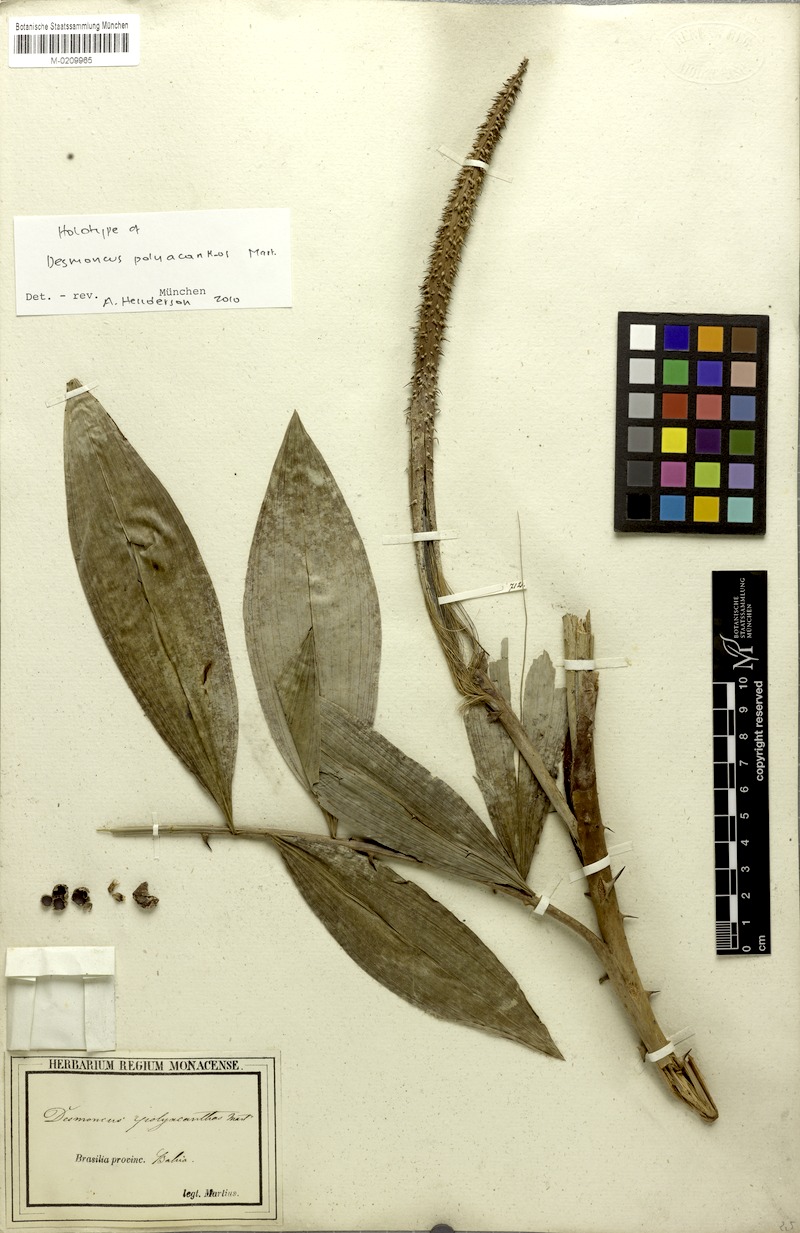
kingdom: Plantae
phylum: Tracheophyta
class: Liliopsida
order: Arecales
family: Arecaceae
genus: Desmoncus
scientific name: Desmoncus polyacanthos
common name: Suriname bramble palm
